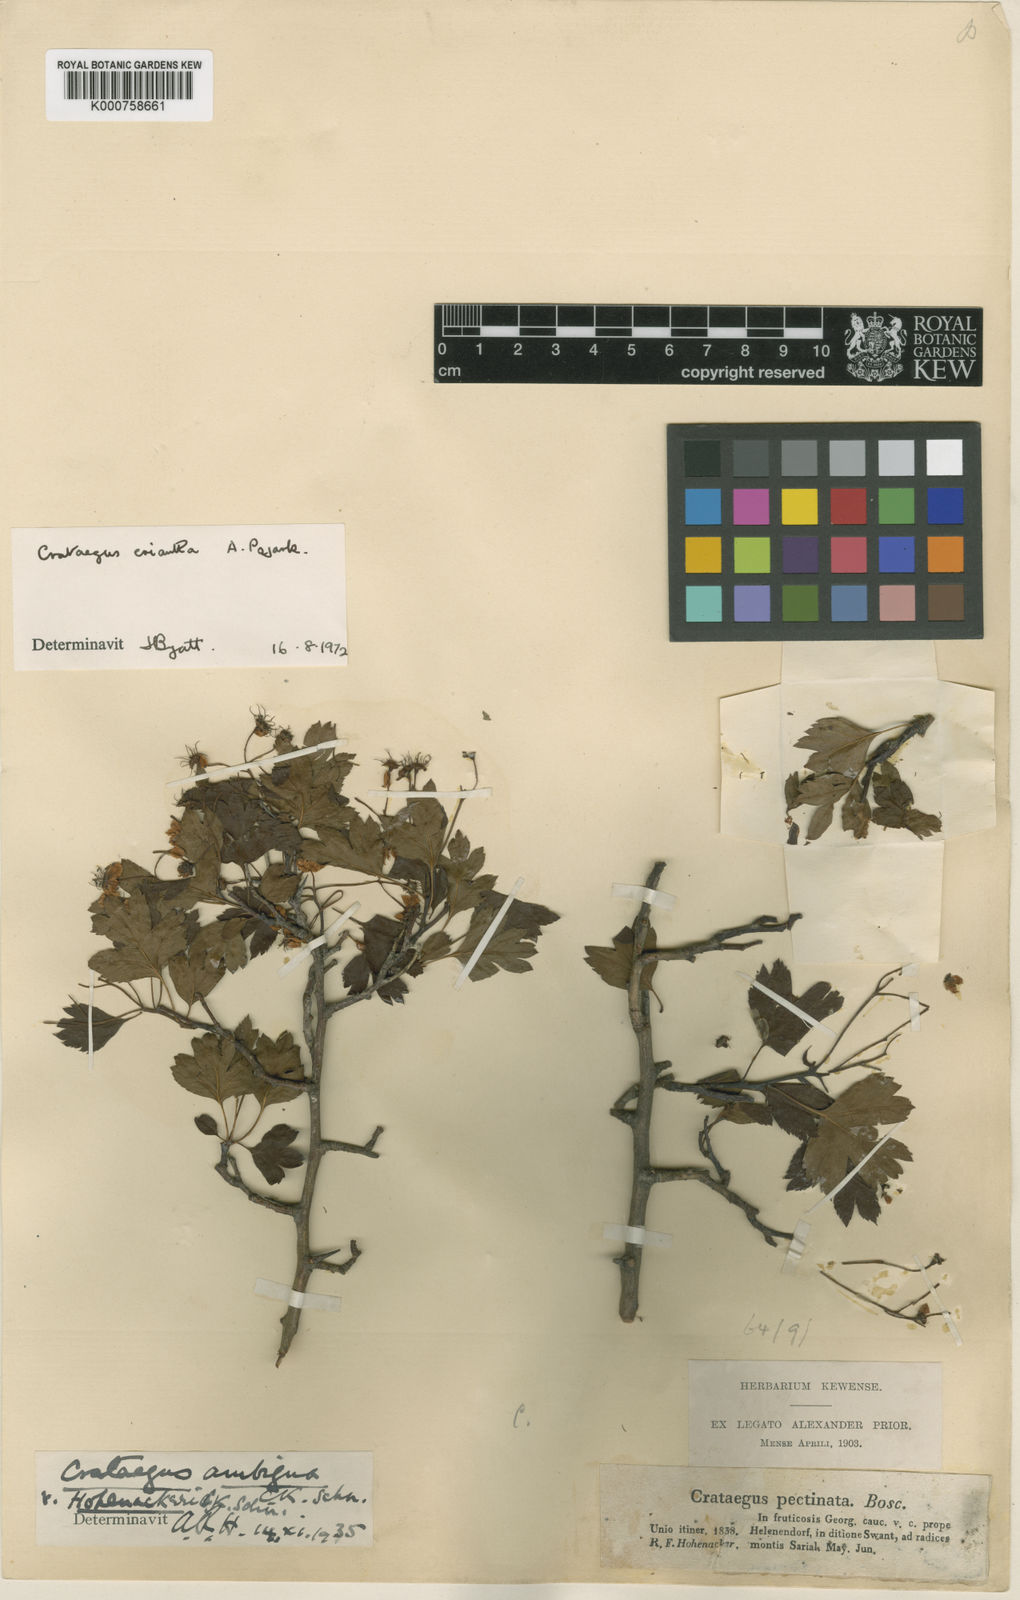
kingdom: Plantae
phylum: Tracheophyta
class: Magnoliopsida
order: Rosales
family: Rosaceae
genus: Crataegus
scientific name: Crataegus meyeri
